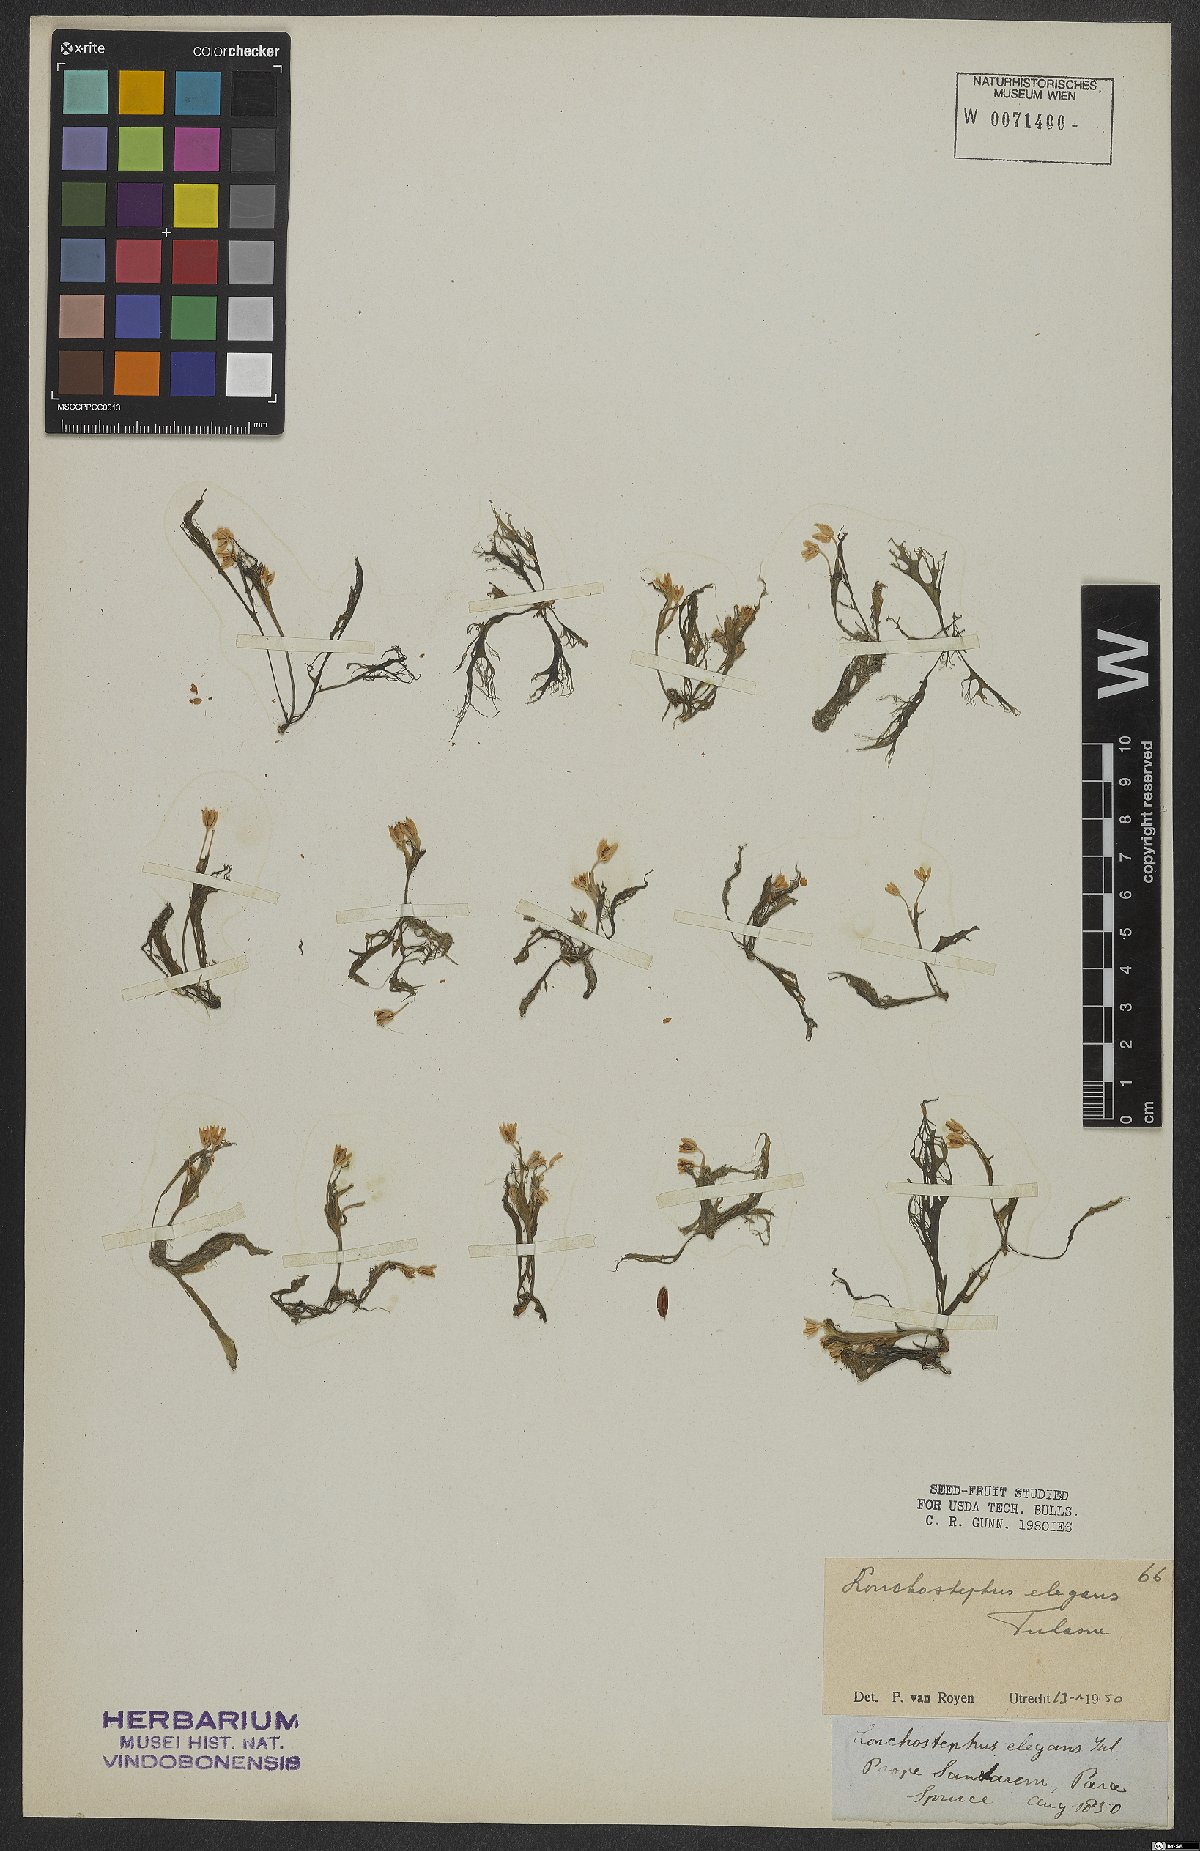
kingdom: Plantae
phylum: Tracheophyta
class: Magnoliopsida
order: Malpighiales
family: Podostemaceae
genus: Lonchostephus
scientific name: Lonchostephus elegans
